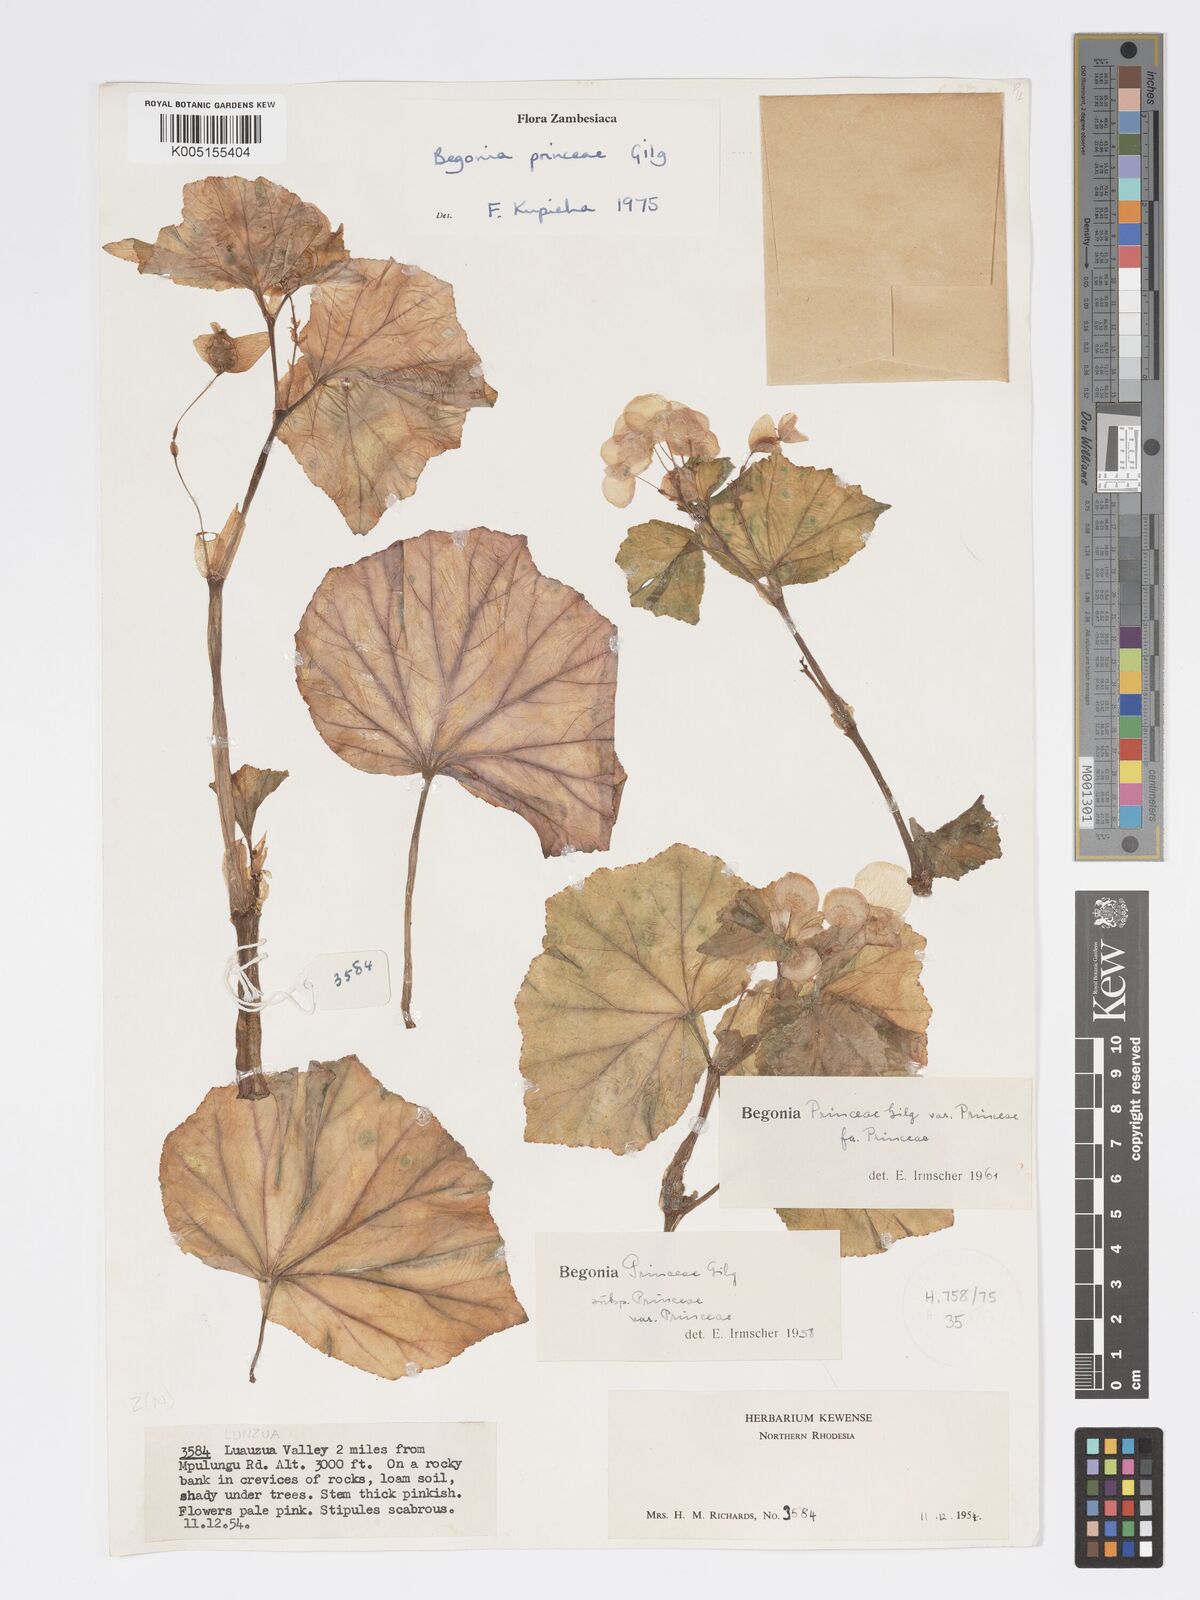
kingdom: Plantae
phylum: Tracheophyta
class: Magnoliopsida
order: Cucurbitales
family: Begoniaceae
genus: Begonia
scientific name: Begonia princeae
